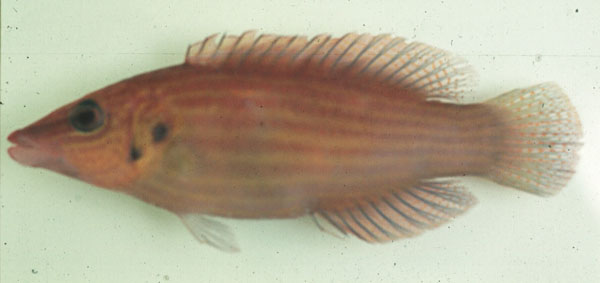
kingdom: Animalia
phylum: Chordata
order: Perciformes
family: Labridae
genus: Pseudocheilinus
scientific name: Pseudocheilinus dispilus
